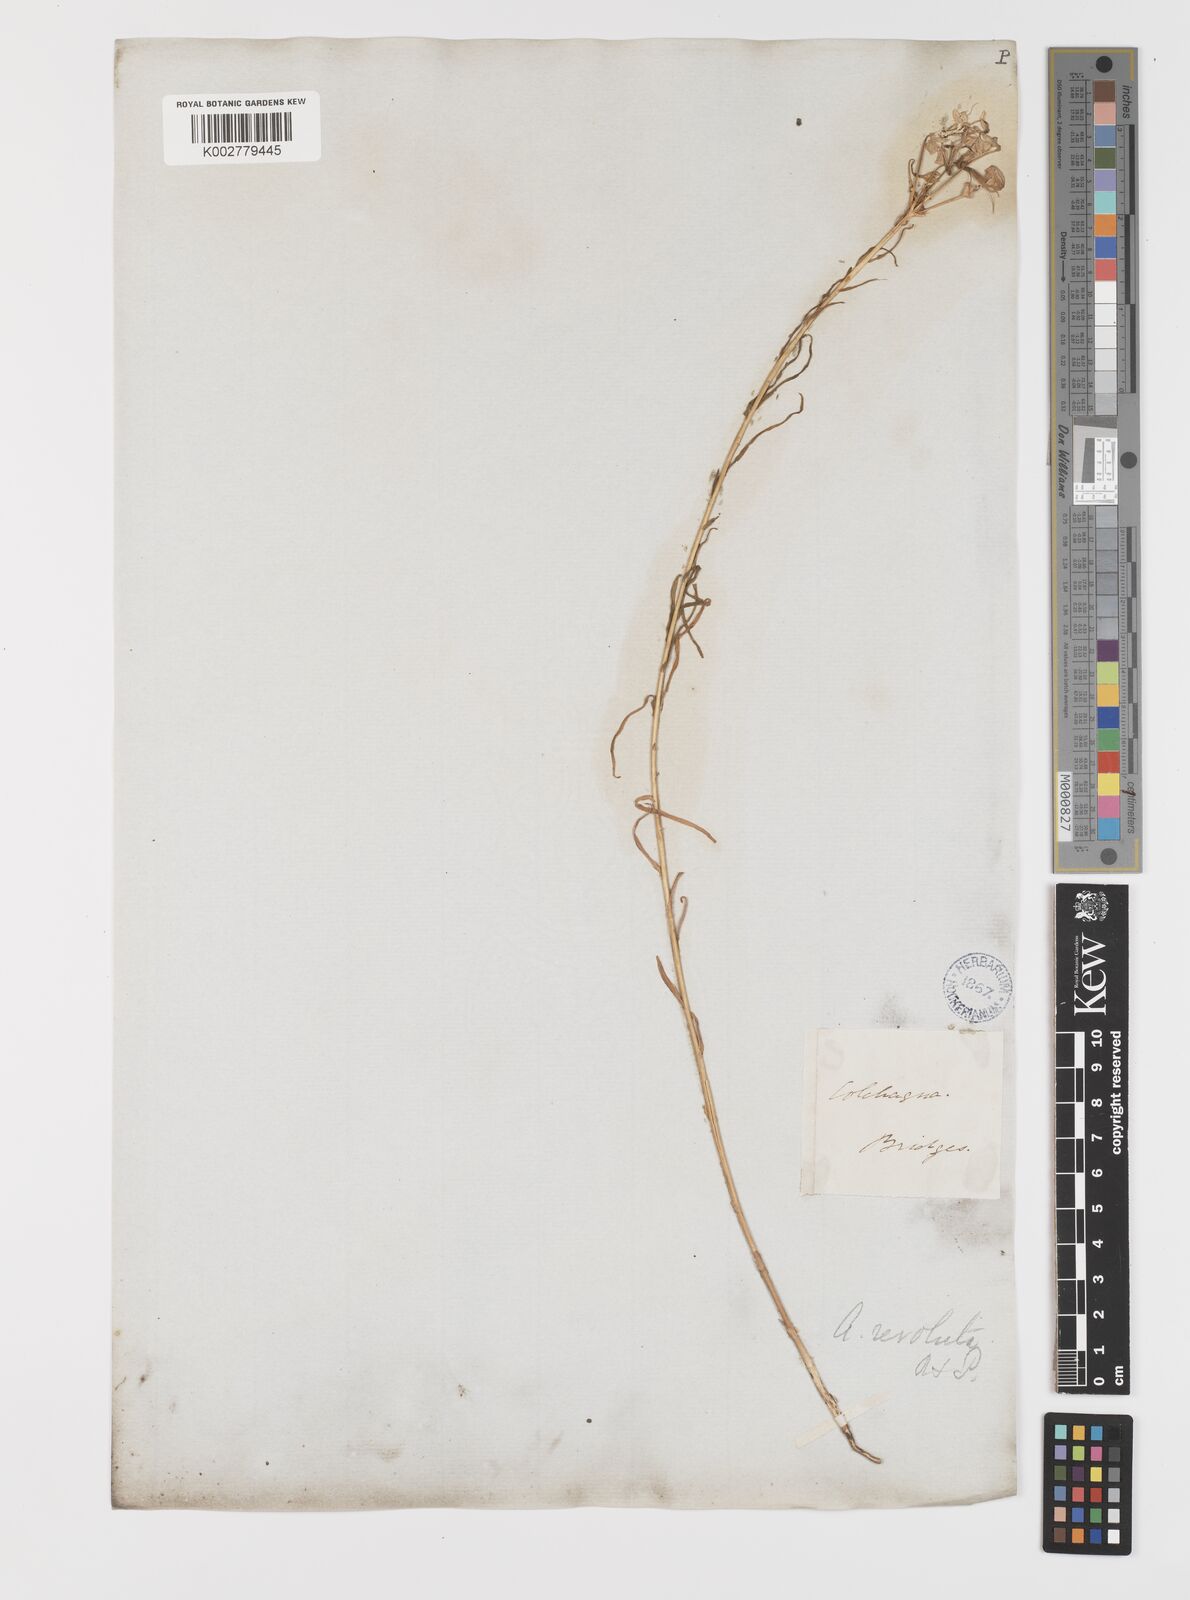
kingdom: Plantae
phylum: Tracheophyta
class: Liliopsida
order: Liliales
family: Alstroemeriaceae
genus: Alstroemeria
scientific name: Alstroemeria revoluta
